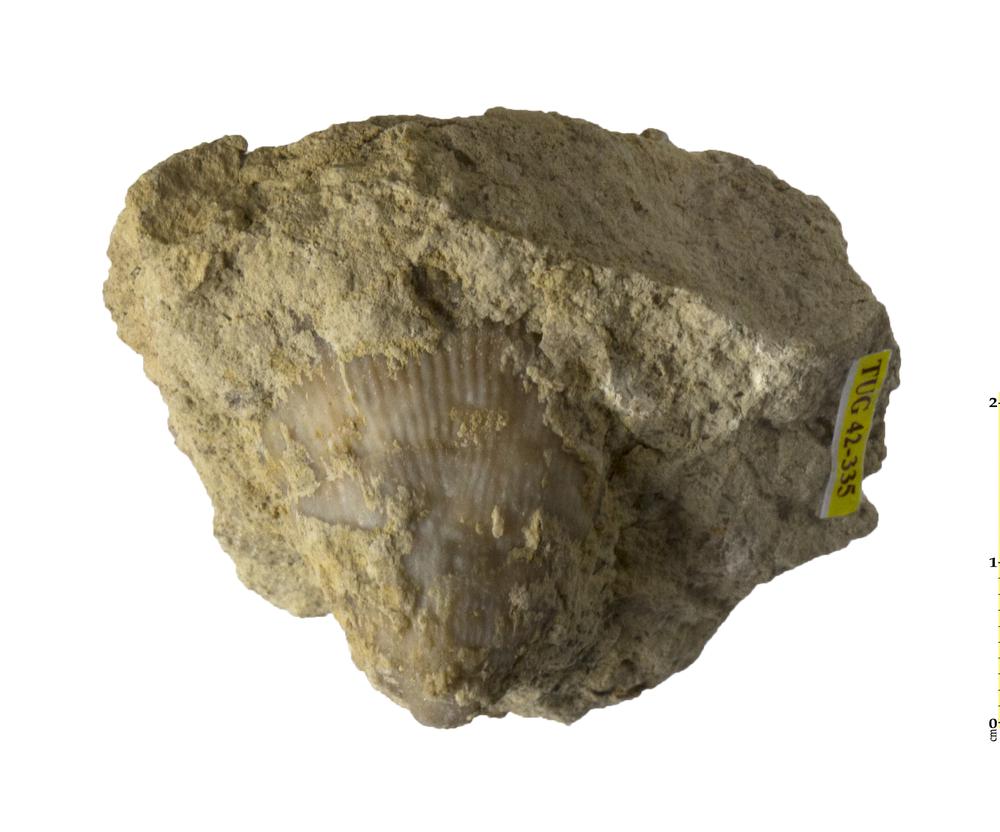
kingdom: Animalia
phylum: Cnidaria
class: Anthozoa
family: Streptelasmatidae
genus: Streptelasma
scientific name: Streptelasma corniculum
